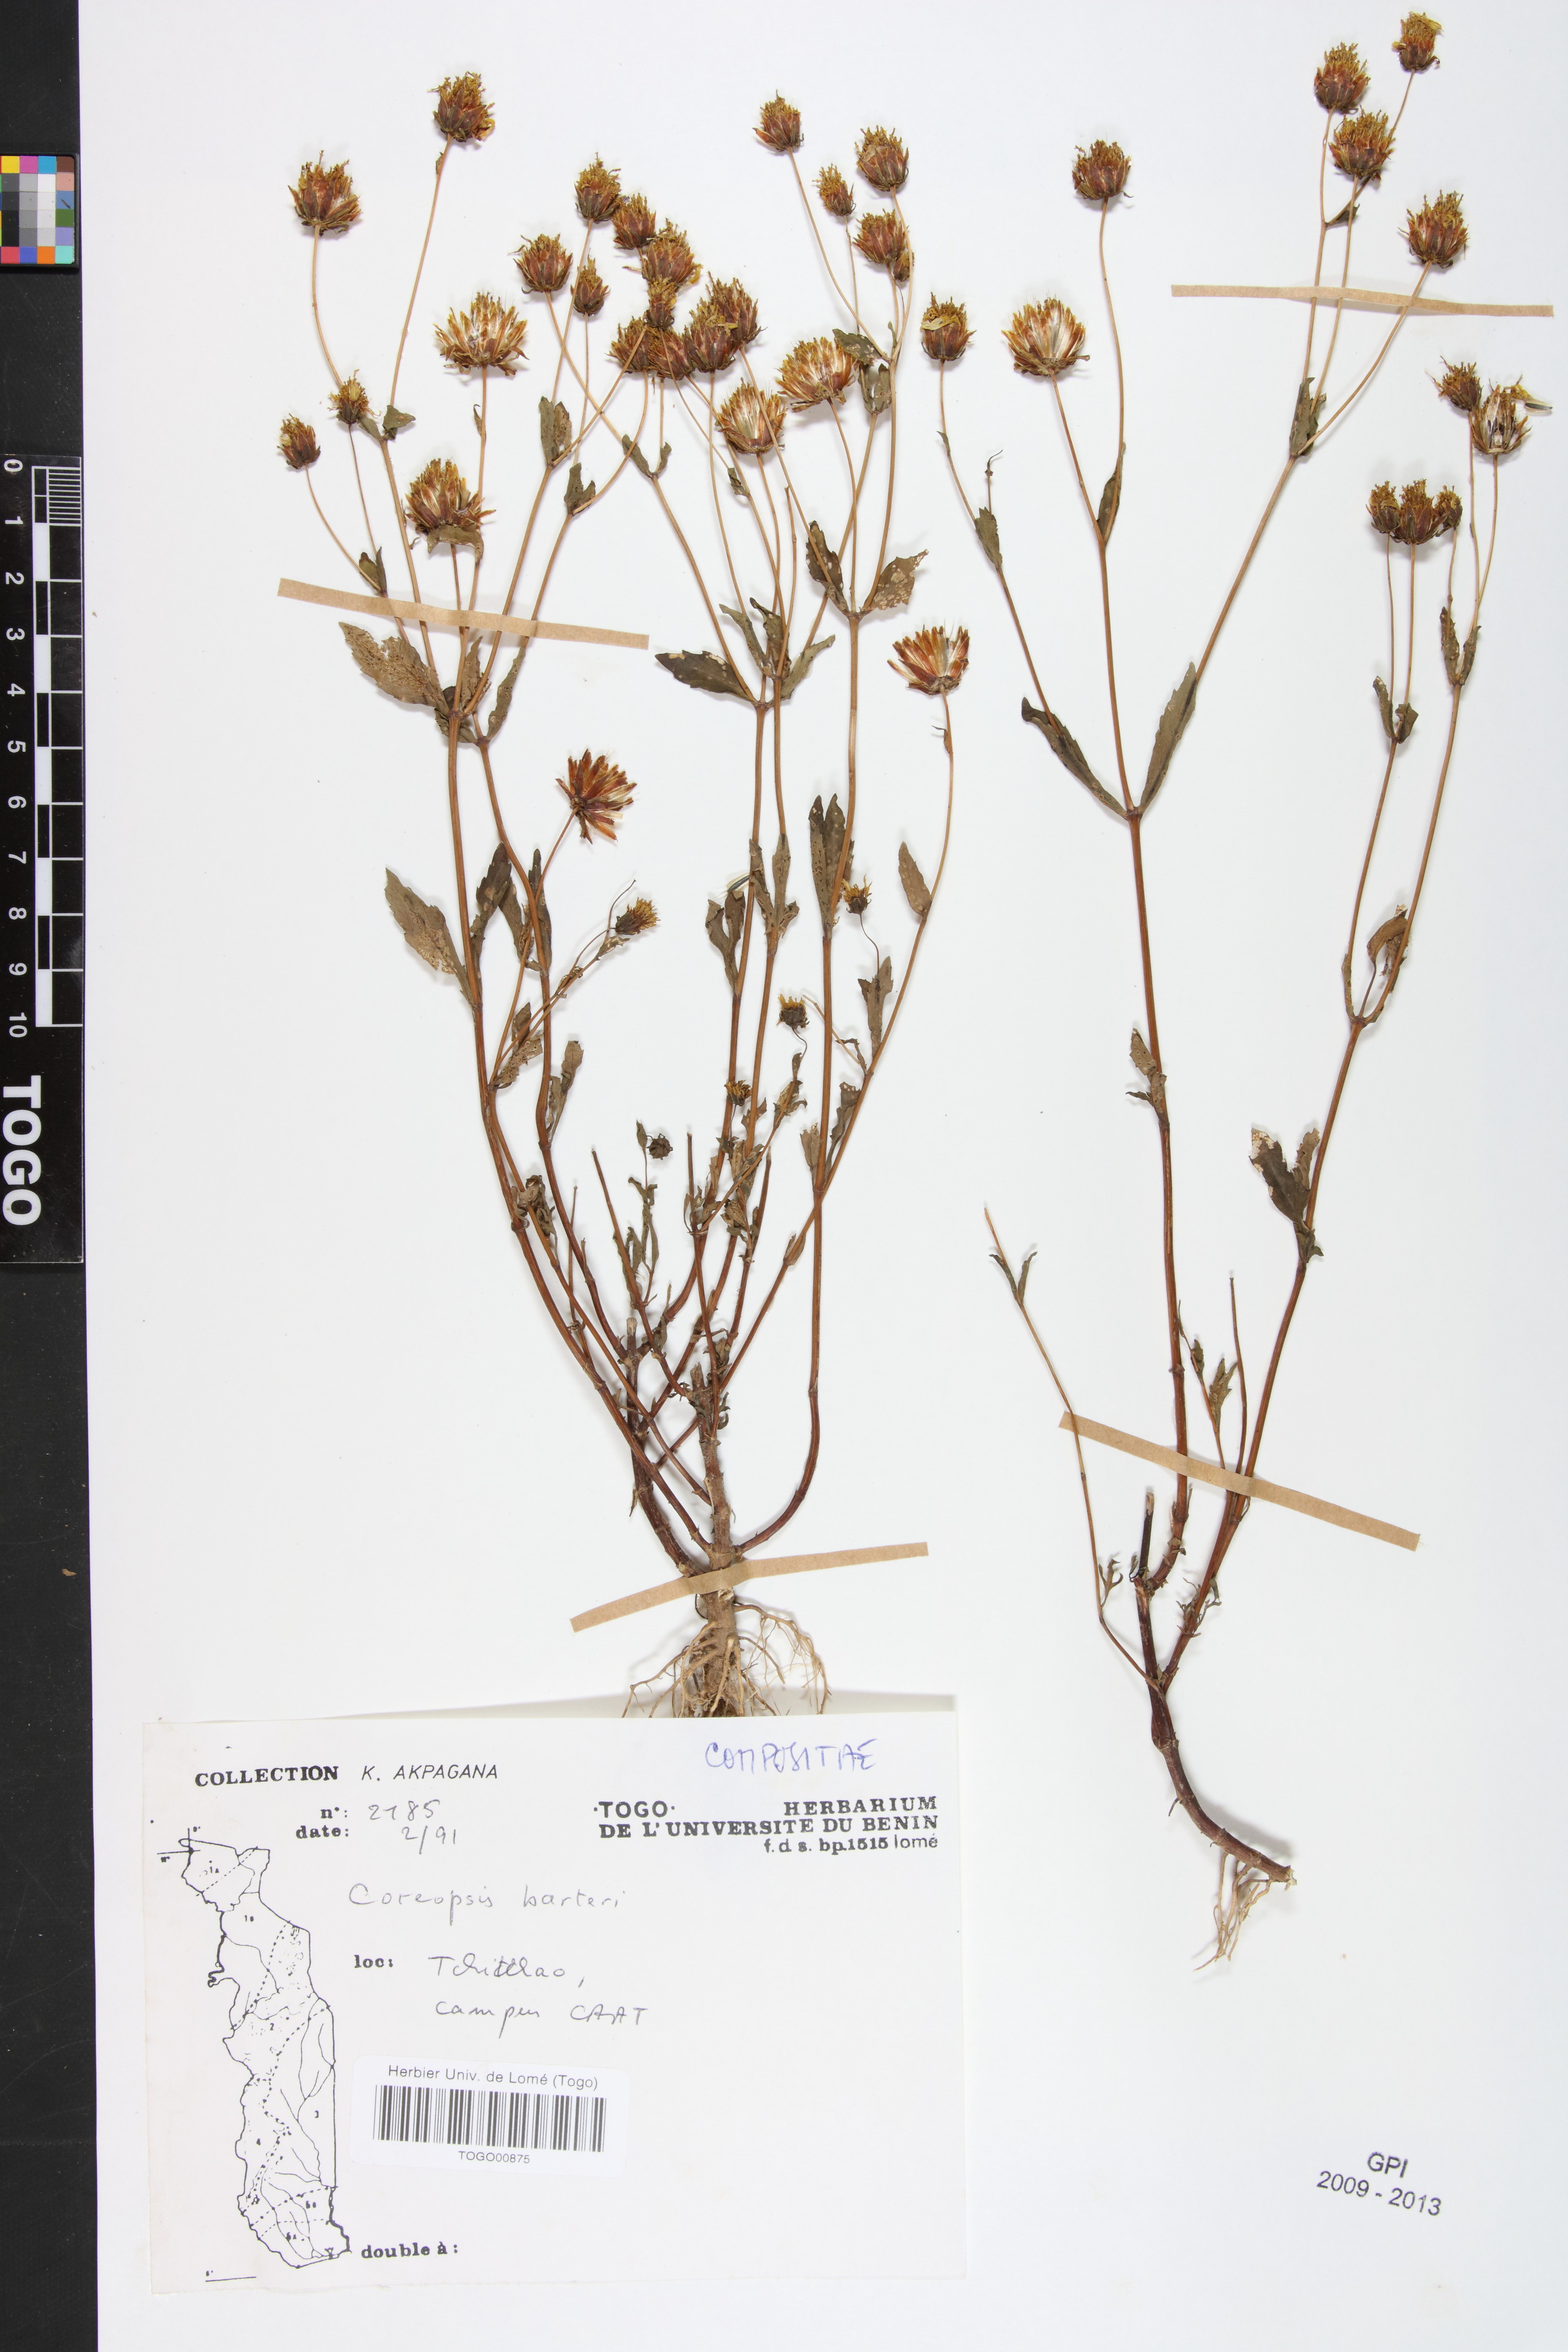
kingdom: Plantae
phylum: Tracheophyta
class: Magnoliopsida
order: Asterales
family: Asteraceae
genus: Bidens
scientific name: Bidens barteri
